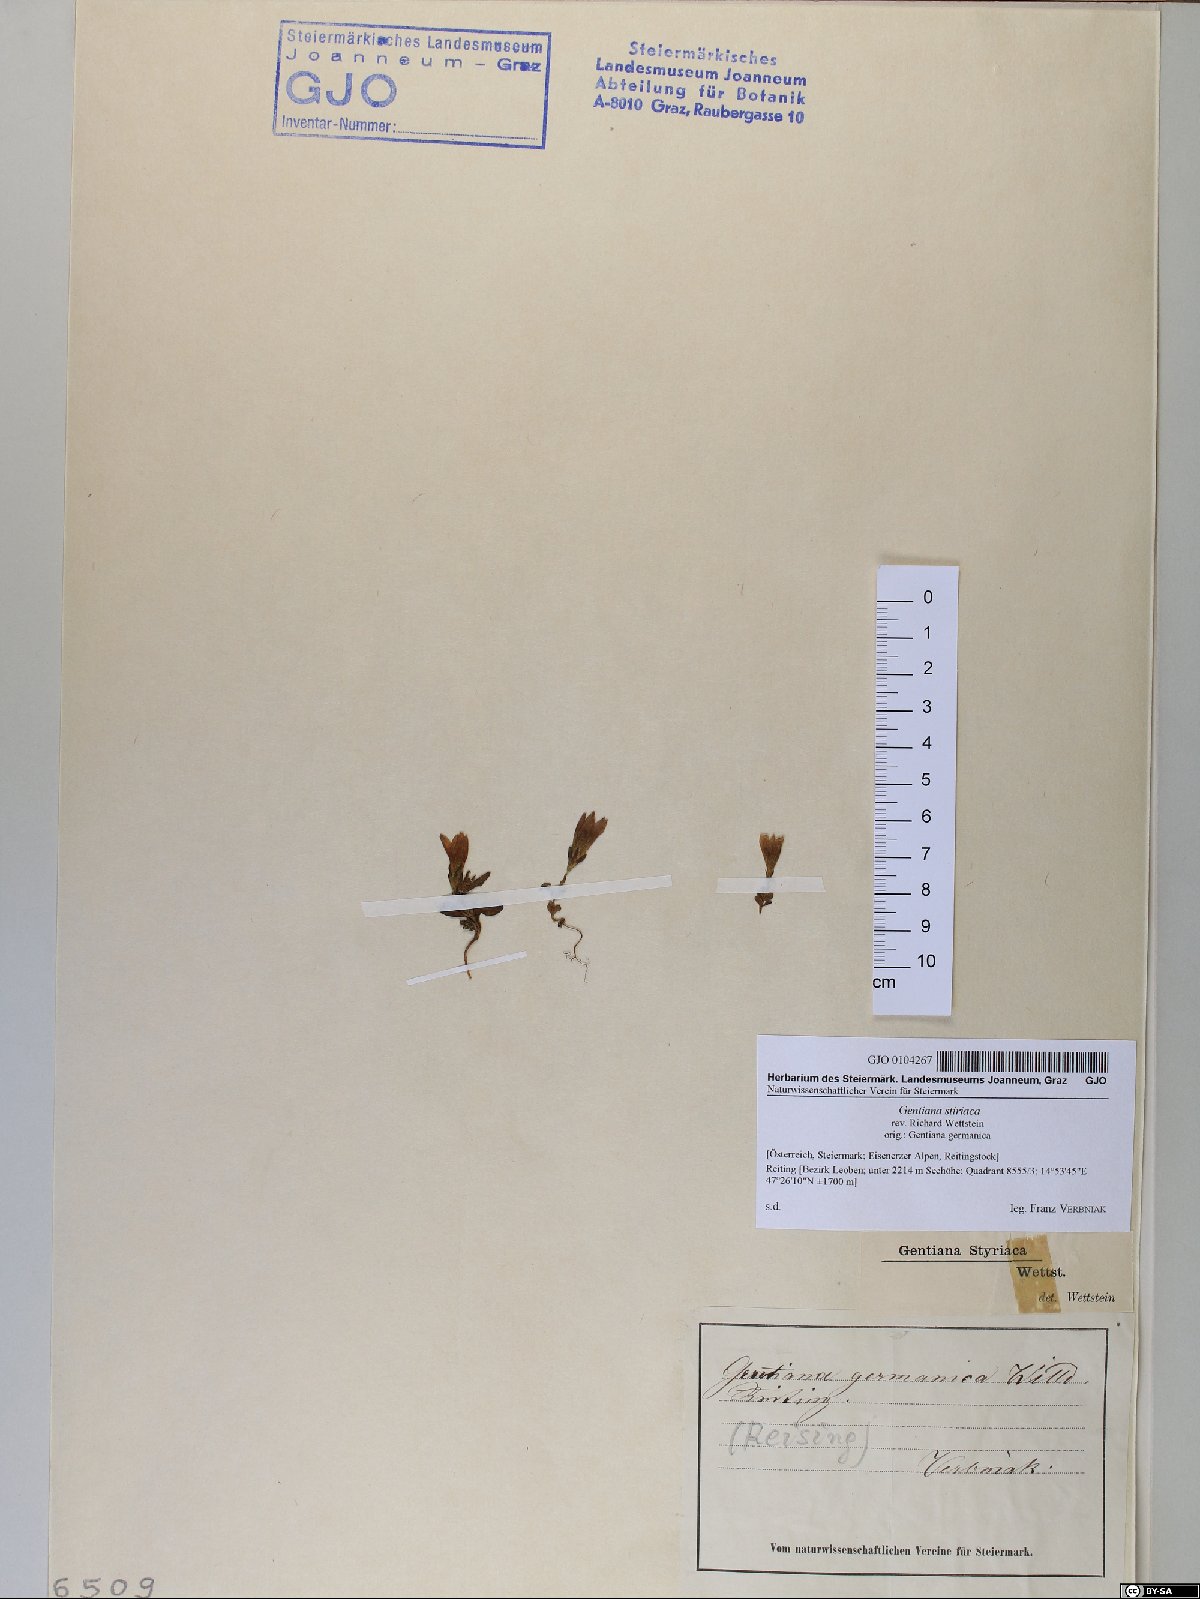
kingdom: Plantae
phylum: Tracheophyta
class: Magnoliopsida
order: Gentianales
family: Gentianaceae
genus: Gentianella
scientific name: Gentianella rhaetica
